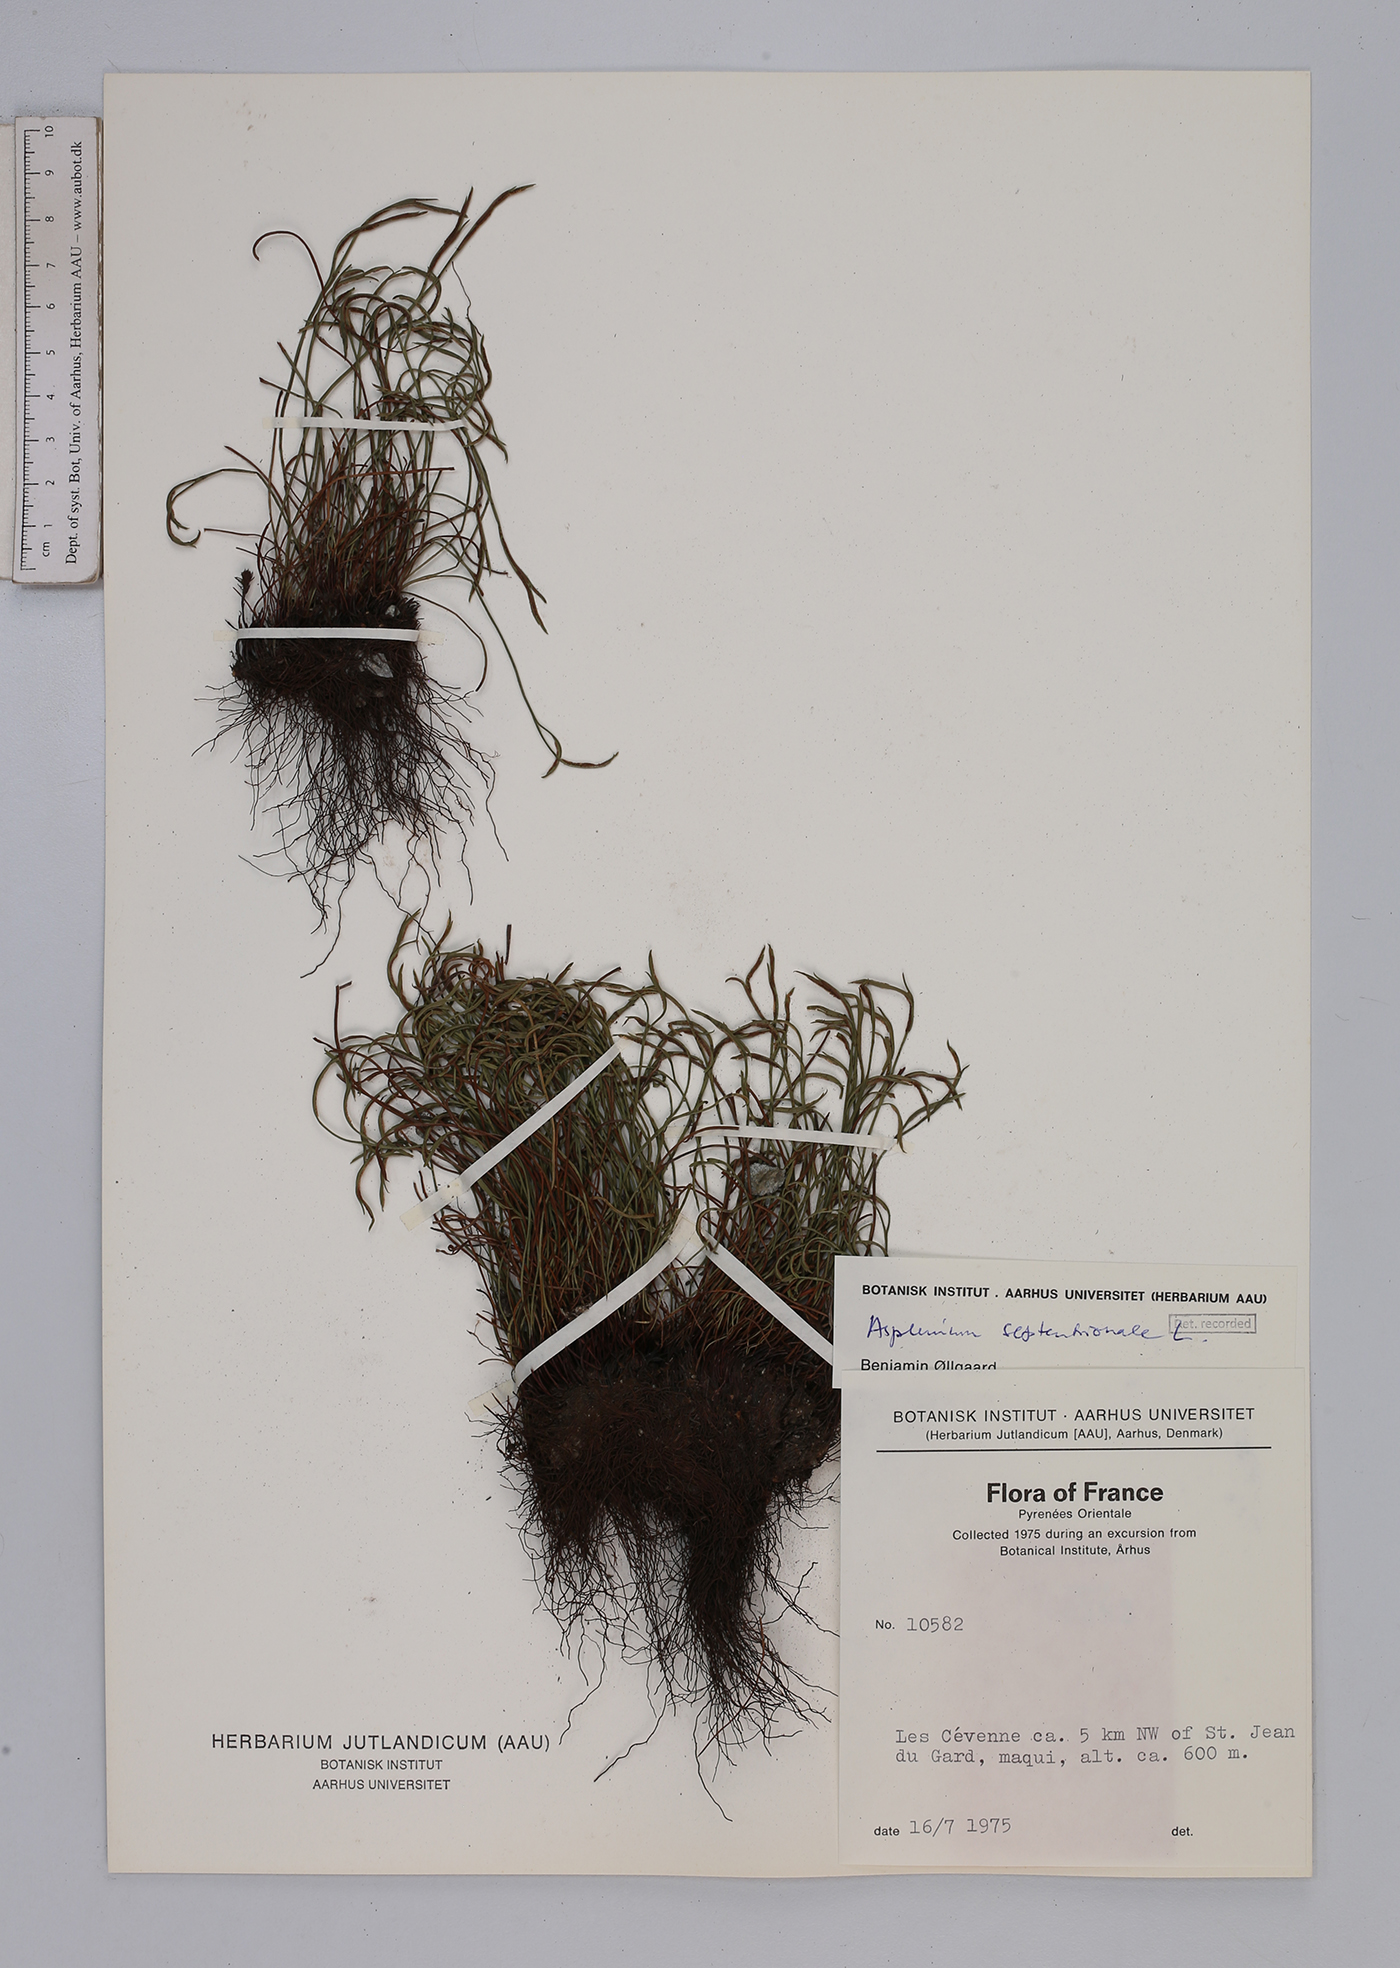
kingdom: Plantae
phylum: Tracheophyta
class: Polypodiopsida
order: Polypodiales
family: Aspleniaceae
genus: Asplenium
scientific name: Asplenium septentrionale
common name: Forked spleenwort
